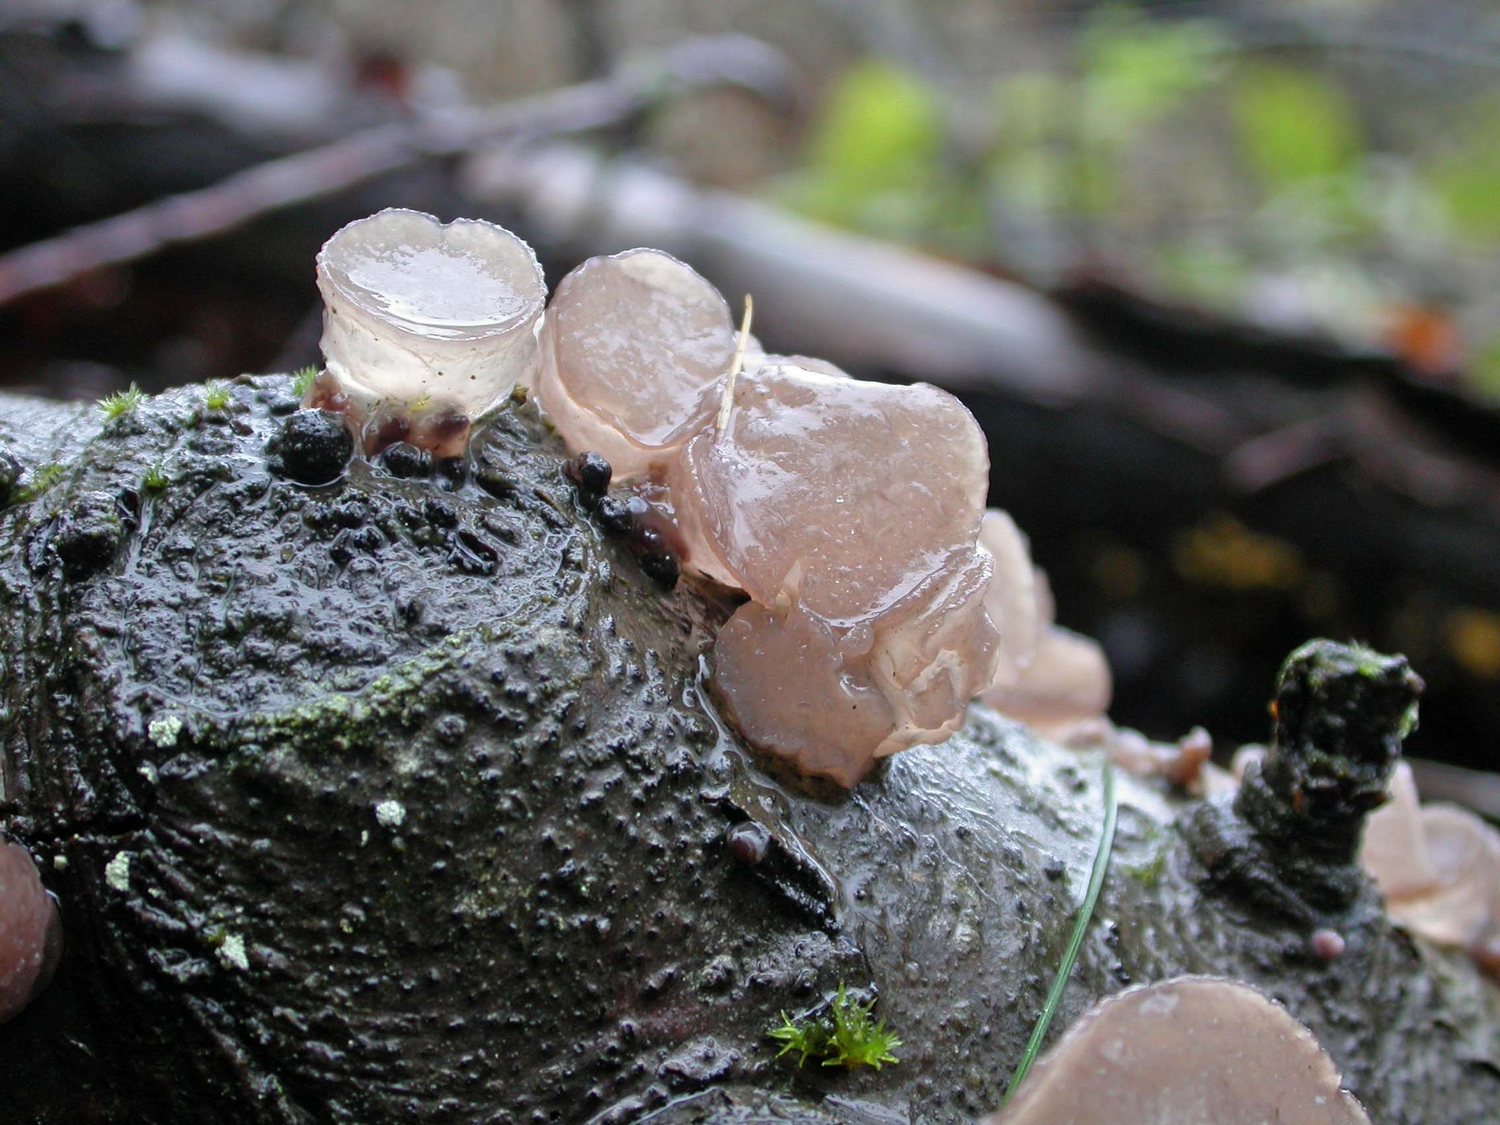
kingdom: Fungi
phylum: Ascomycota
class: Leotiomycetes
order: Helotiales
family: Gelatinodiscaceae
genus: Neobulgaria
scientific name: Neobulgaria pura
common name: bleg bævreskive
